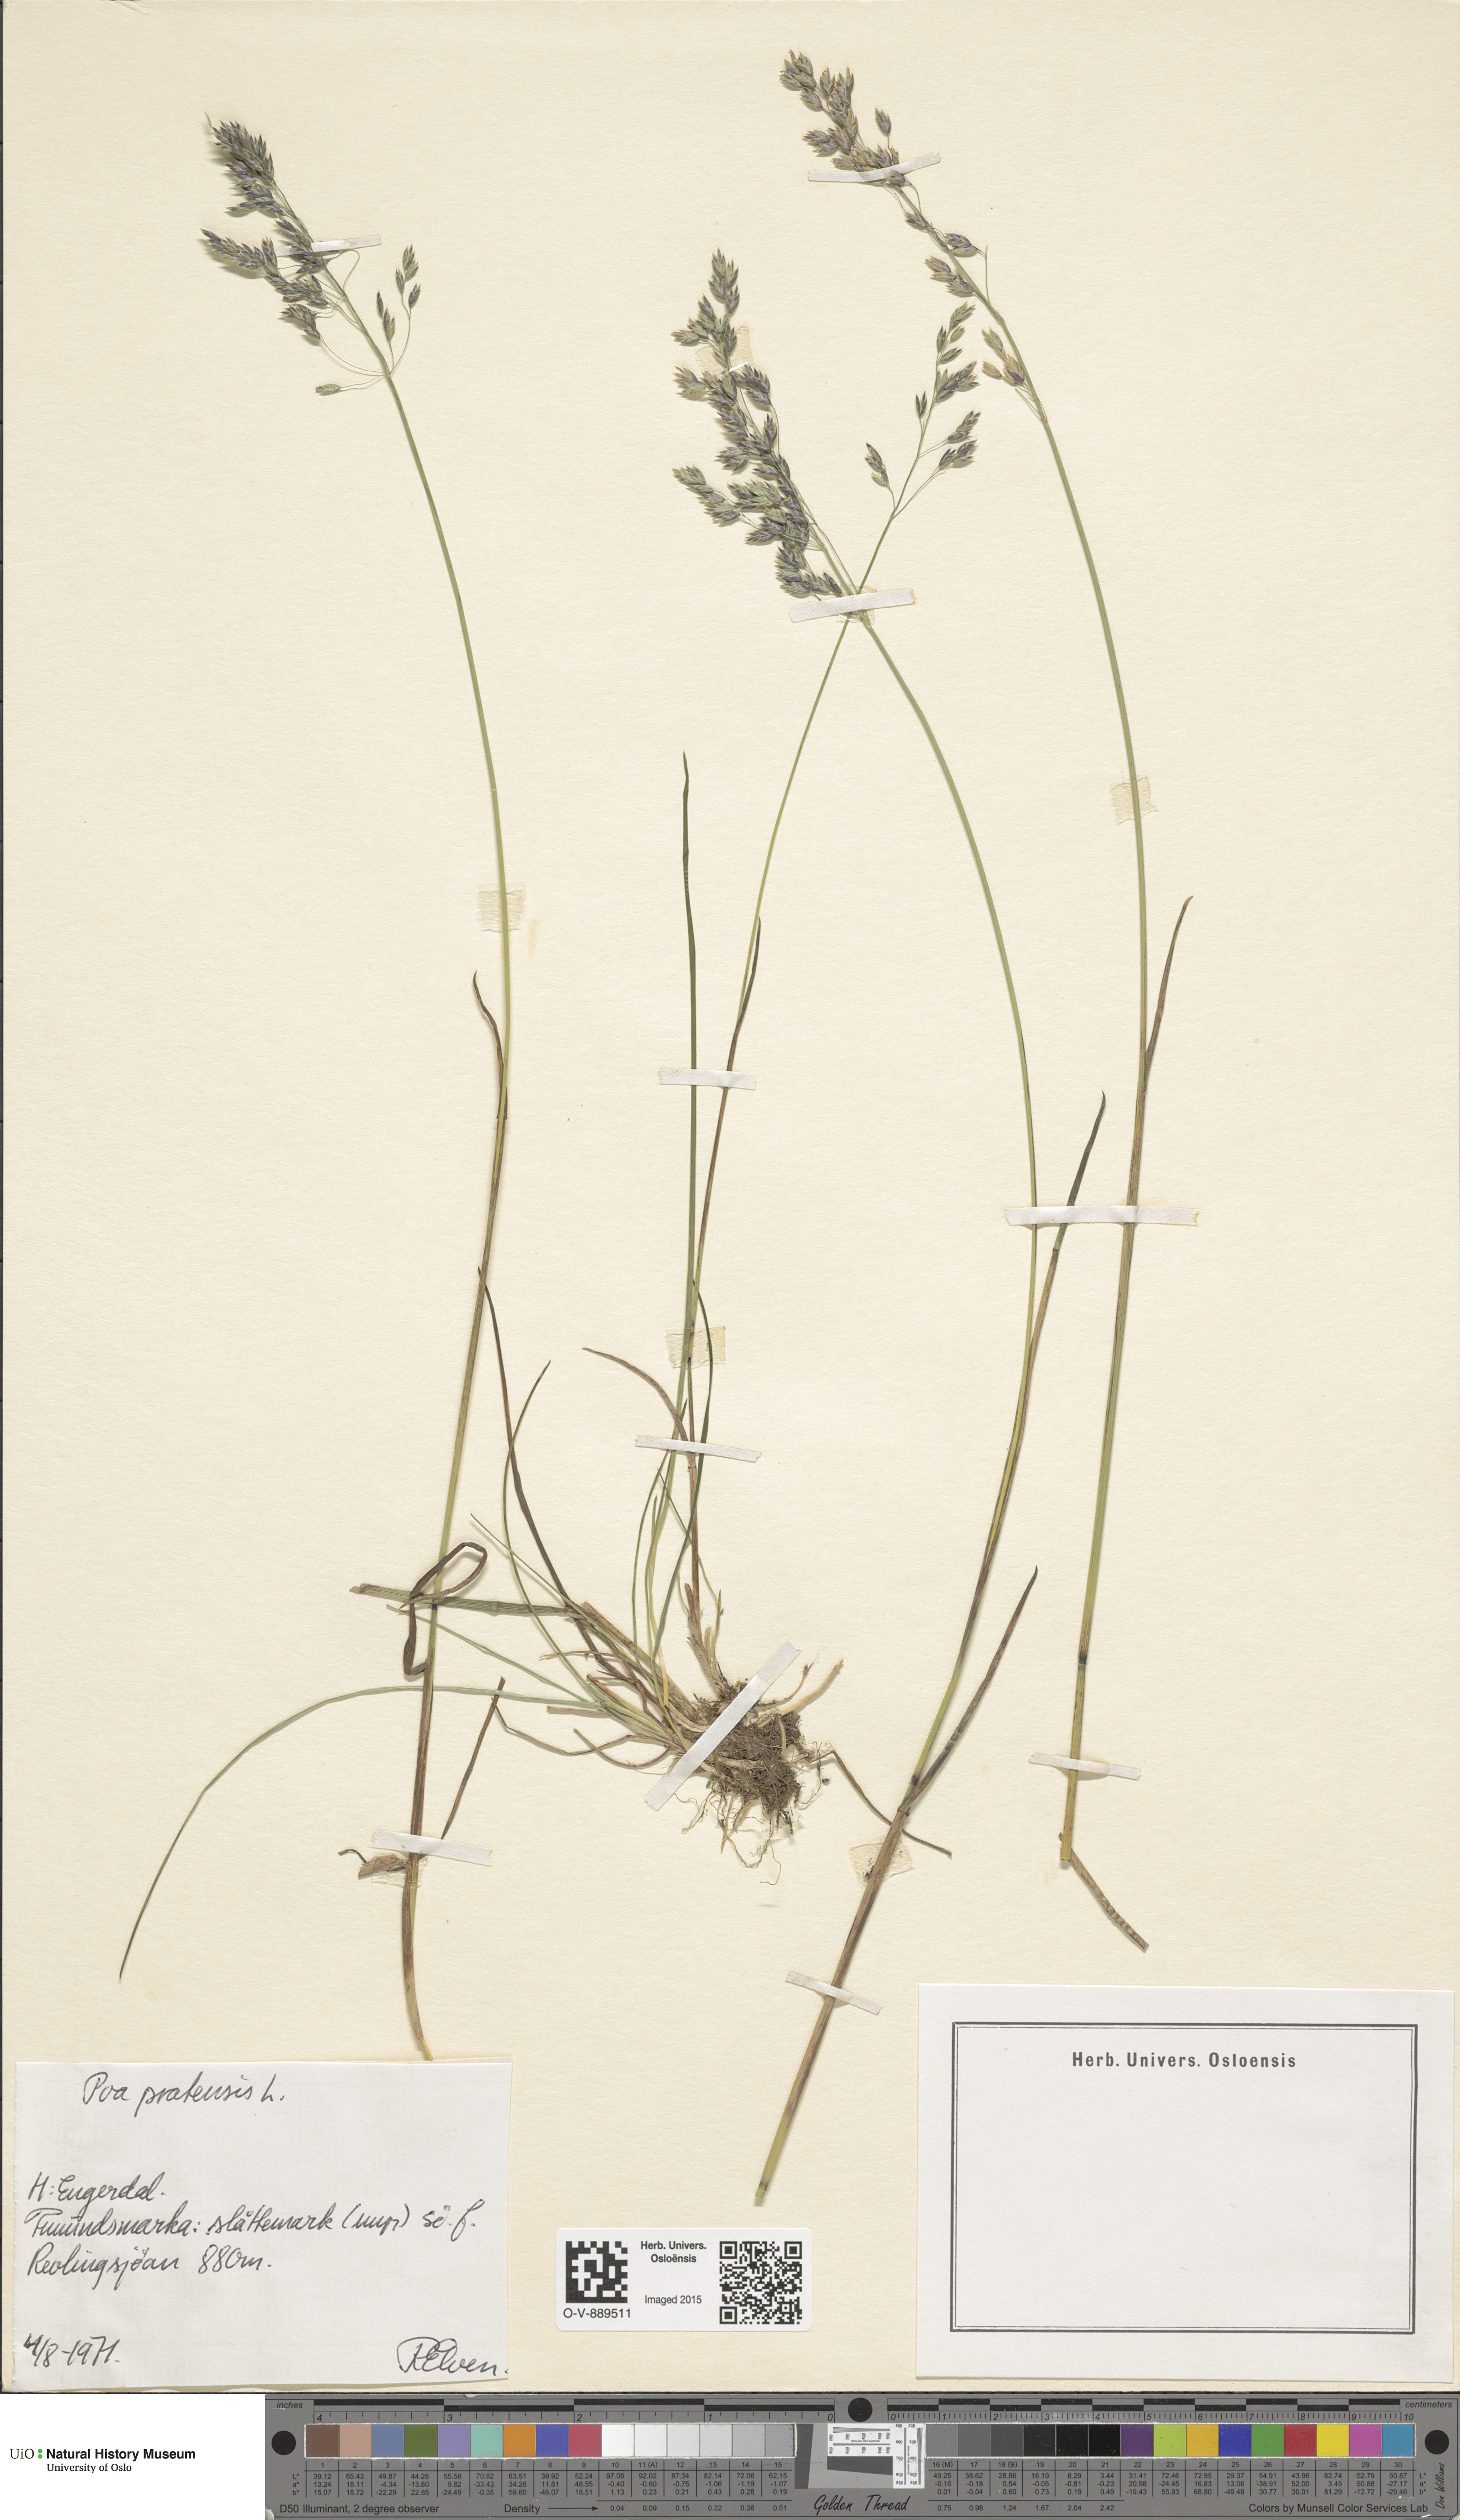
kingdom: Plantae
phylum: Tracheophyta
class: Liliopsida
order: Poales
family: Poaceae
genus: Poa
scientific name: Poa pratensis
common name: Kentucky bluegrass
